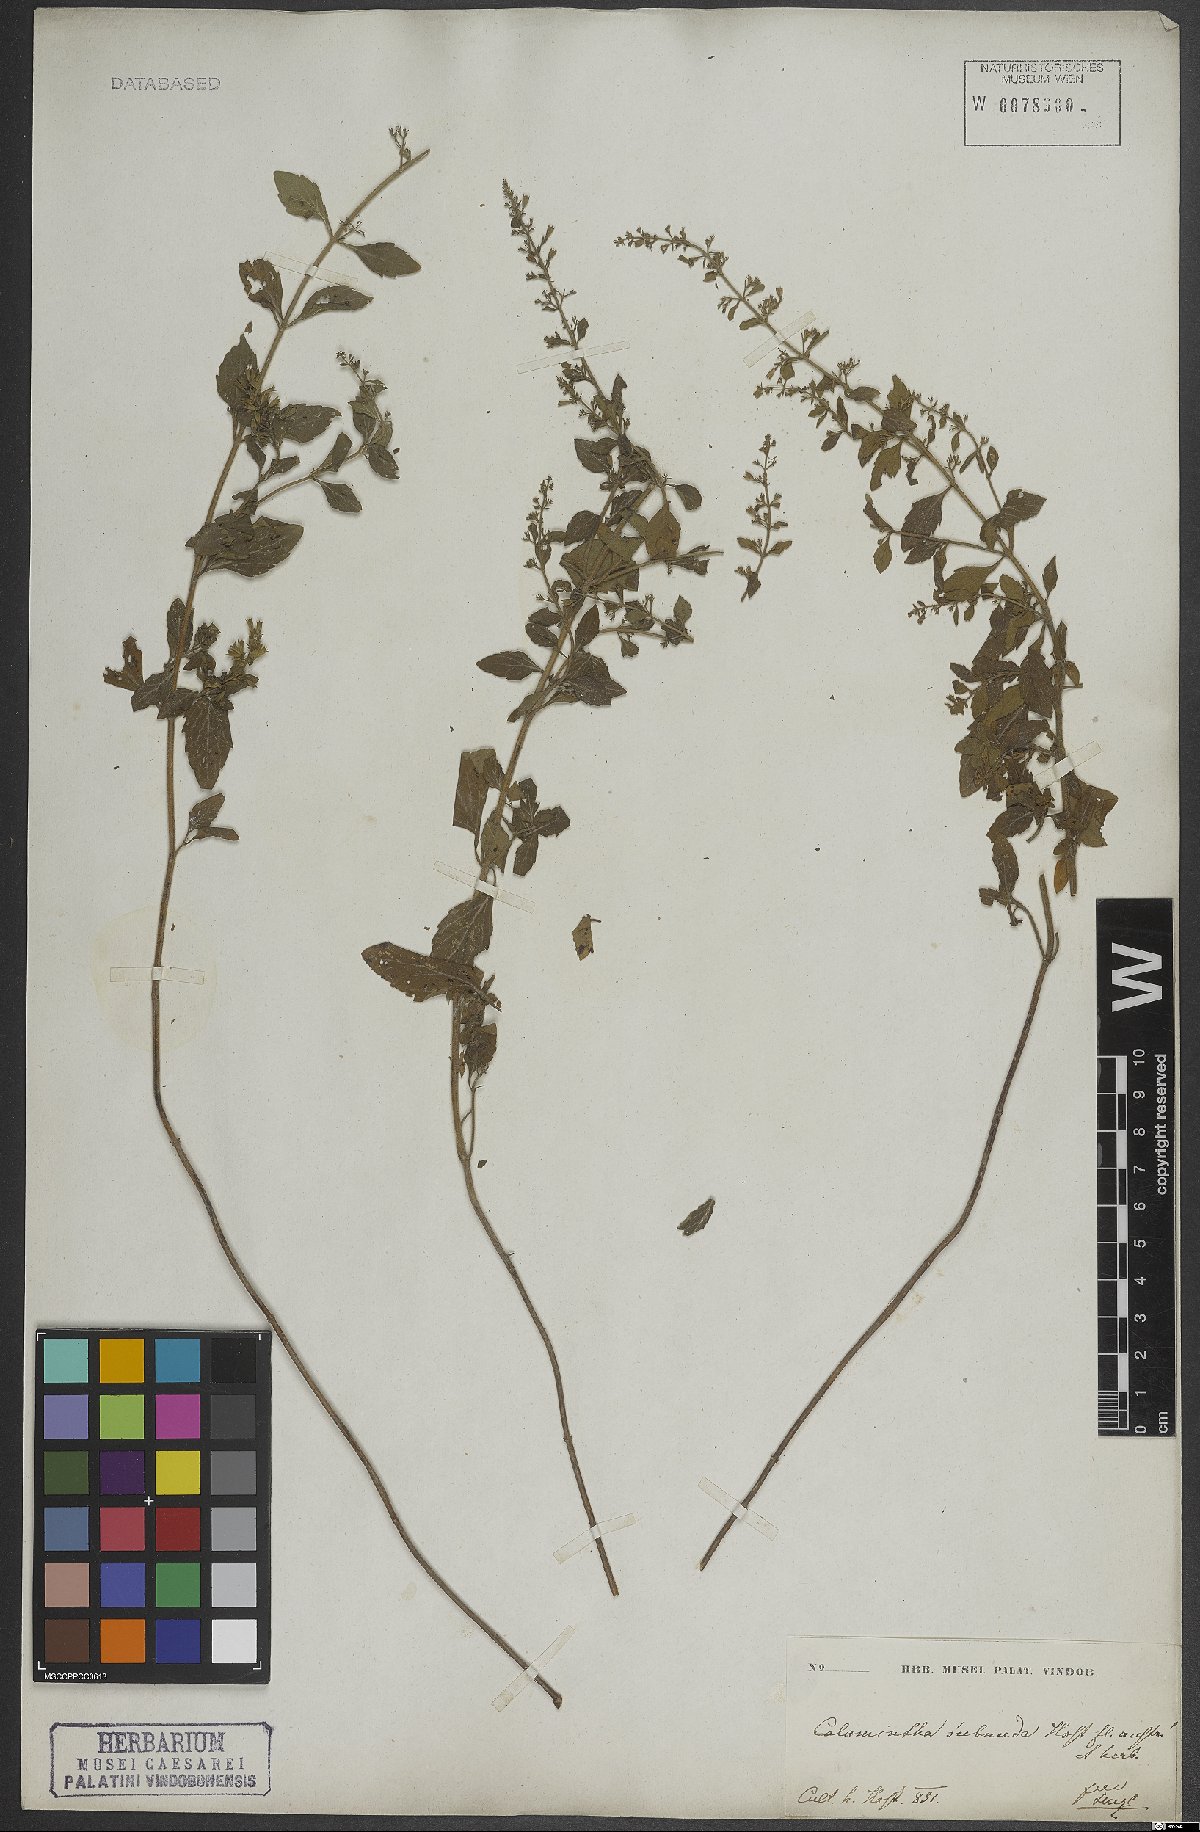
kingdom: Plantae
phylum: Tracheophyta
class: Magnoliopsida
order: Lamiales
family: Lamiaceae
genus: Clinopodium
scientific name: Clinopodium nepeta
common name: Lesser calamint
